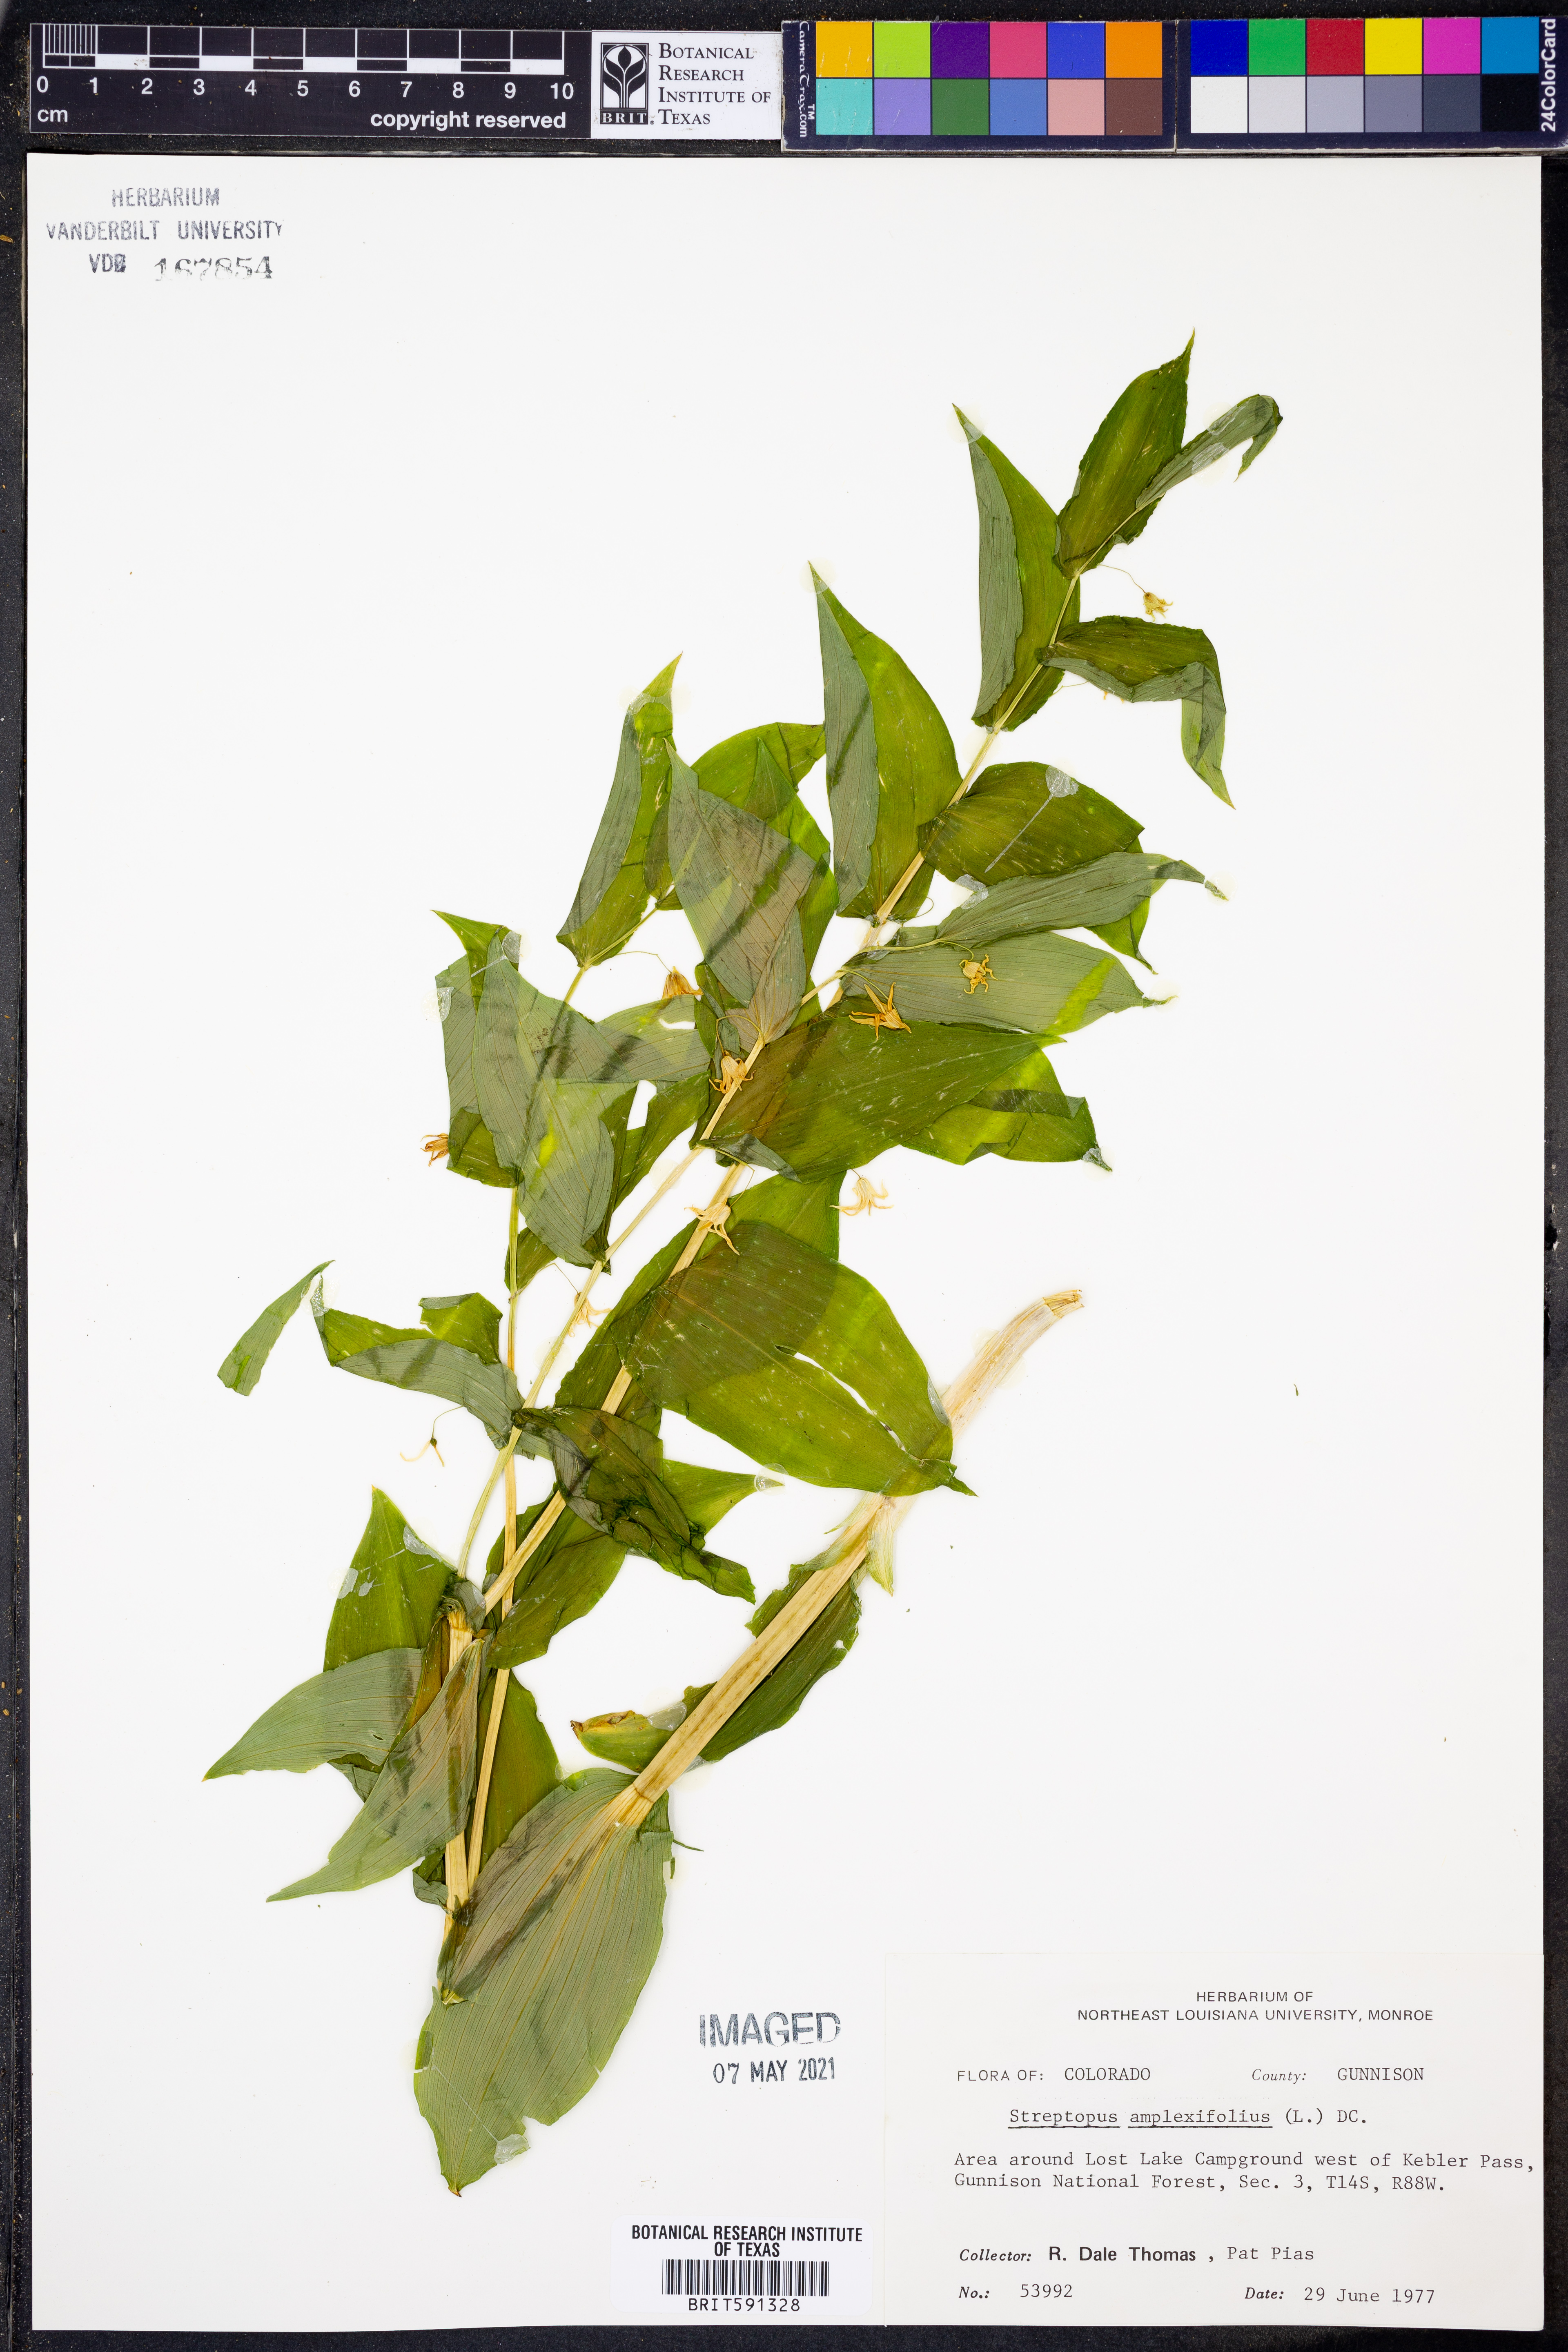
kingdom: Plantae
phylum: Tracheophyta
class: Liliopsida
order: Liliales
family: Liliaceae
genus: Streptopus
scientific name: Streptopus amplexifolius
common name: Clasp twisted stalk
